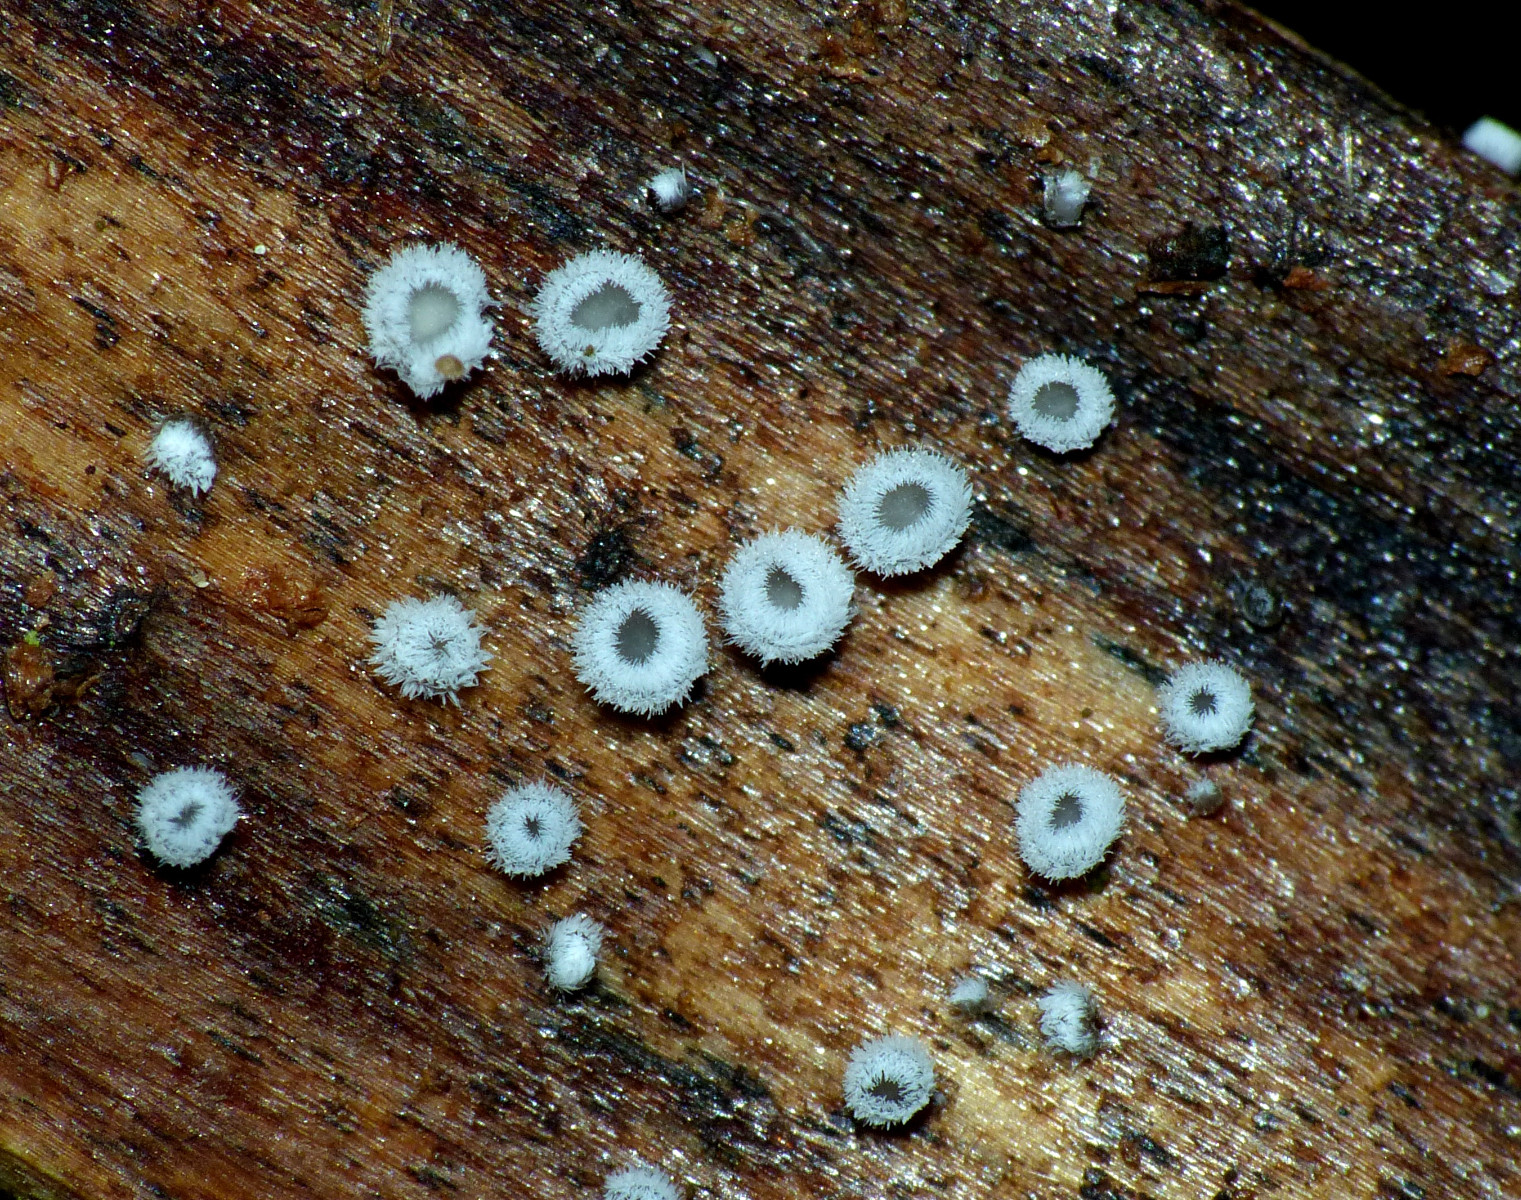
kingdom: Fungi
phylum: Basidiomycota
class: Agaricomycetes
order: Agaricales
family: Niaceae
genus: Lachnella
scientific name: Lachnella alboviolascens
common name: grå frynserede
